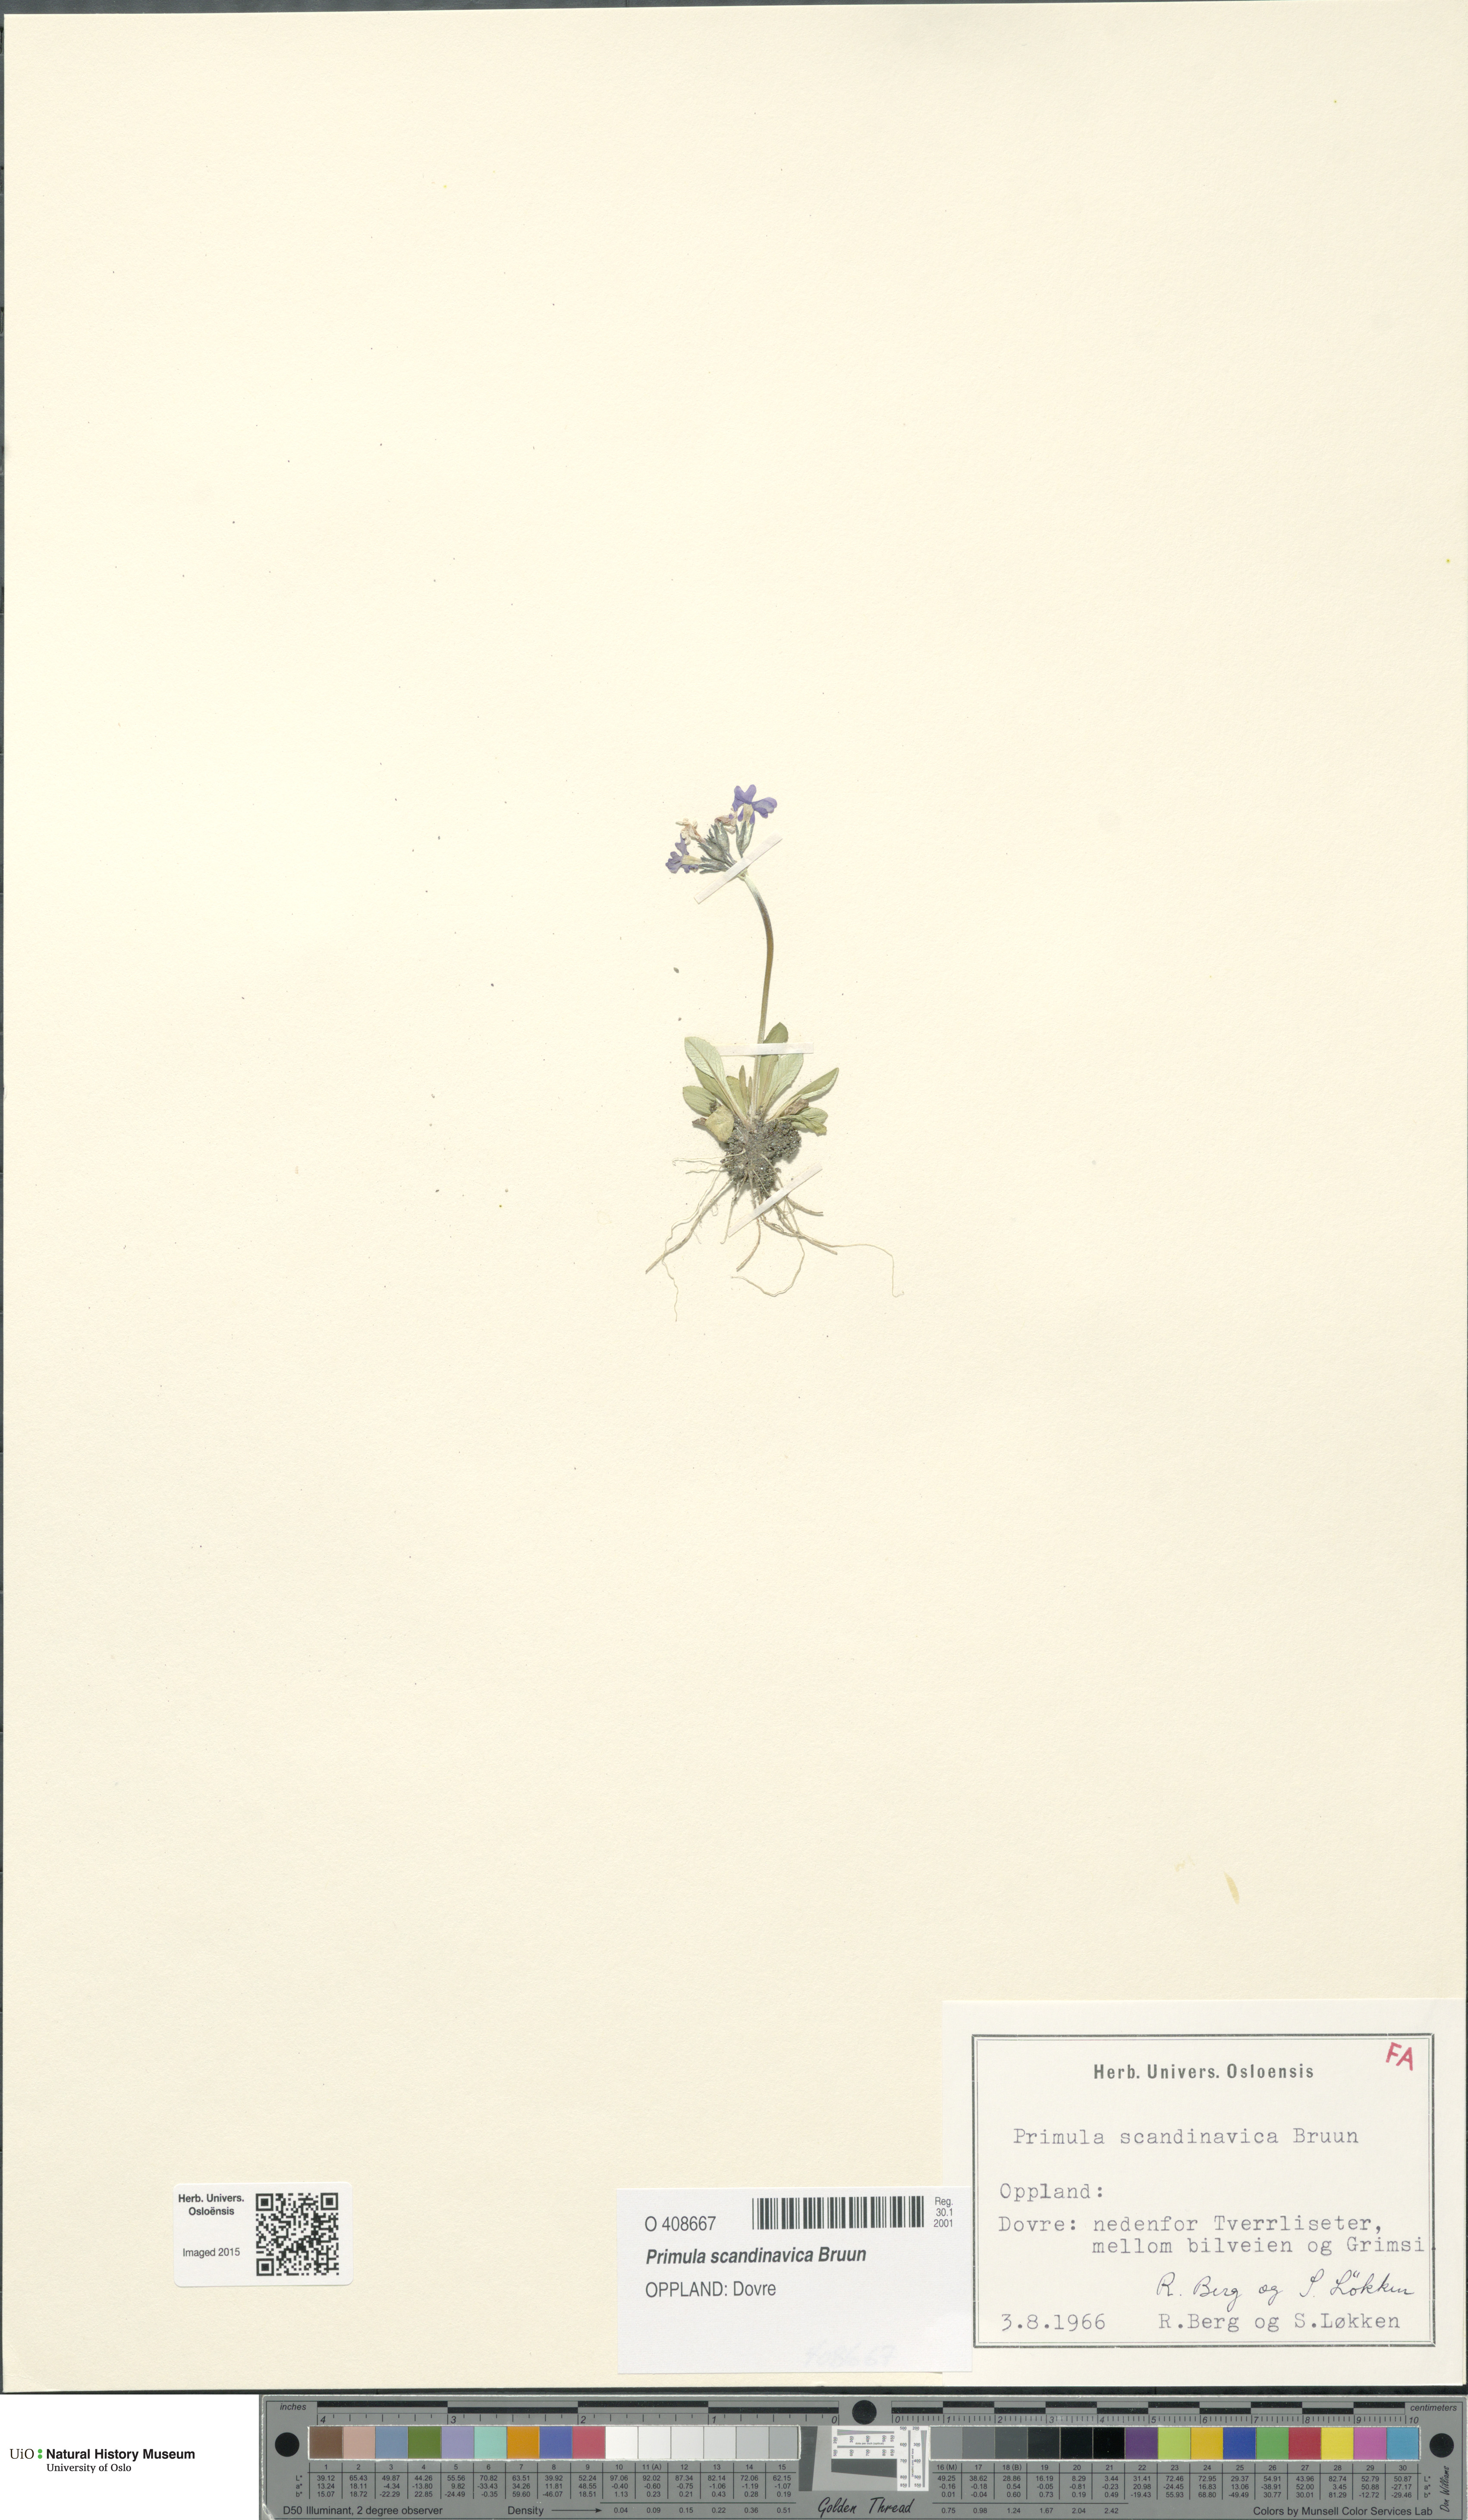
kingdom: Plantae
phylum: Tracheophyta
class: Magnoliopsida
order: Ericales
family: Primulaceae
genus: Primula
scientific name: Primula scandinavica
